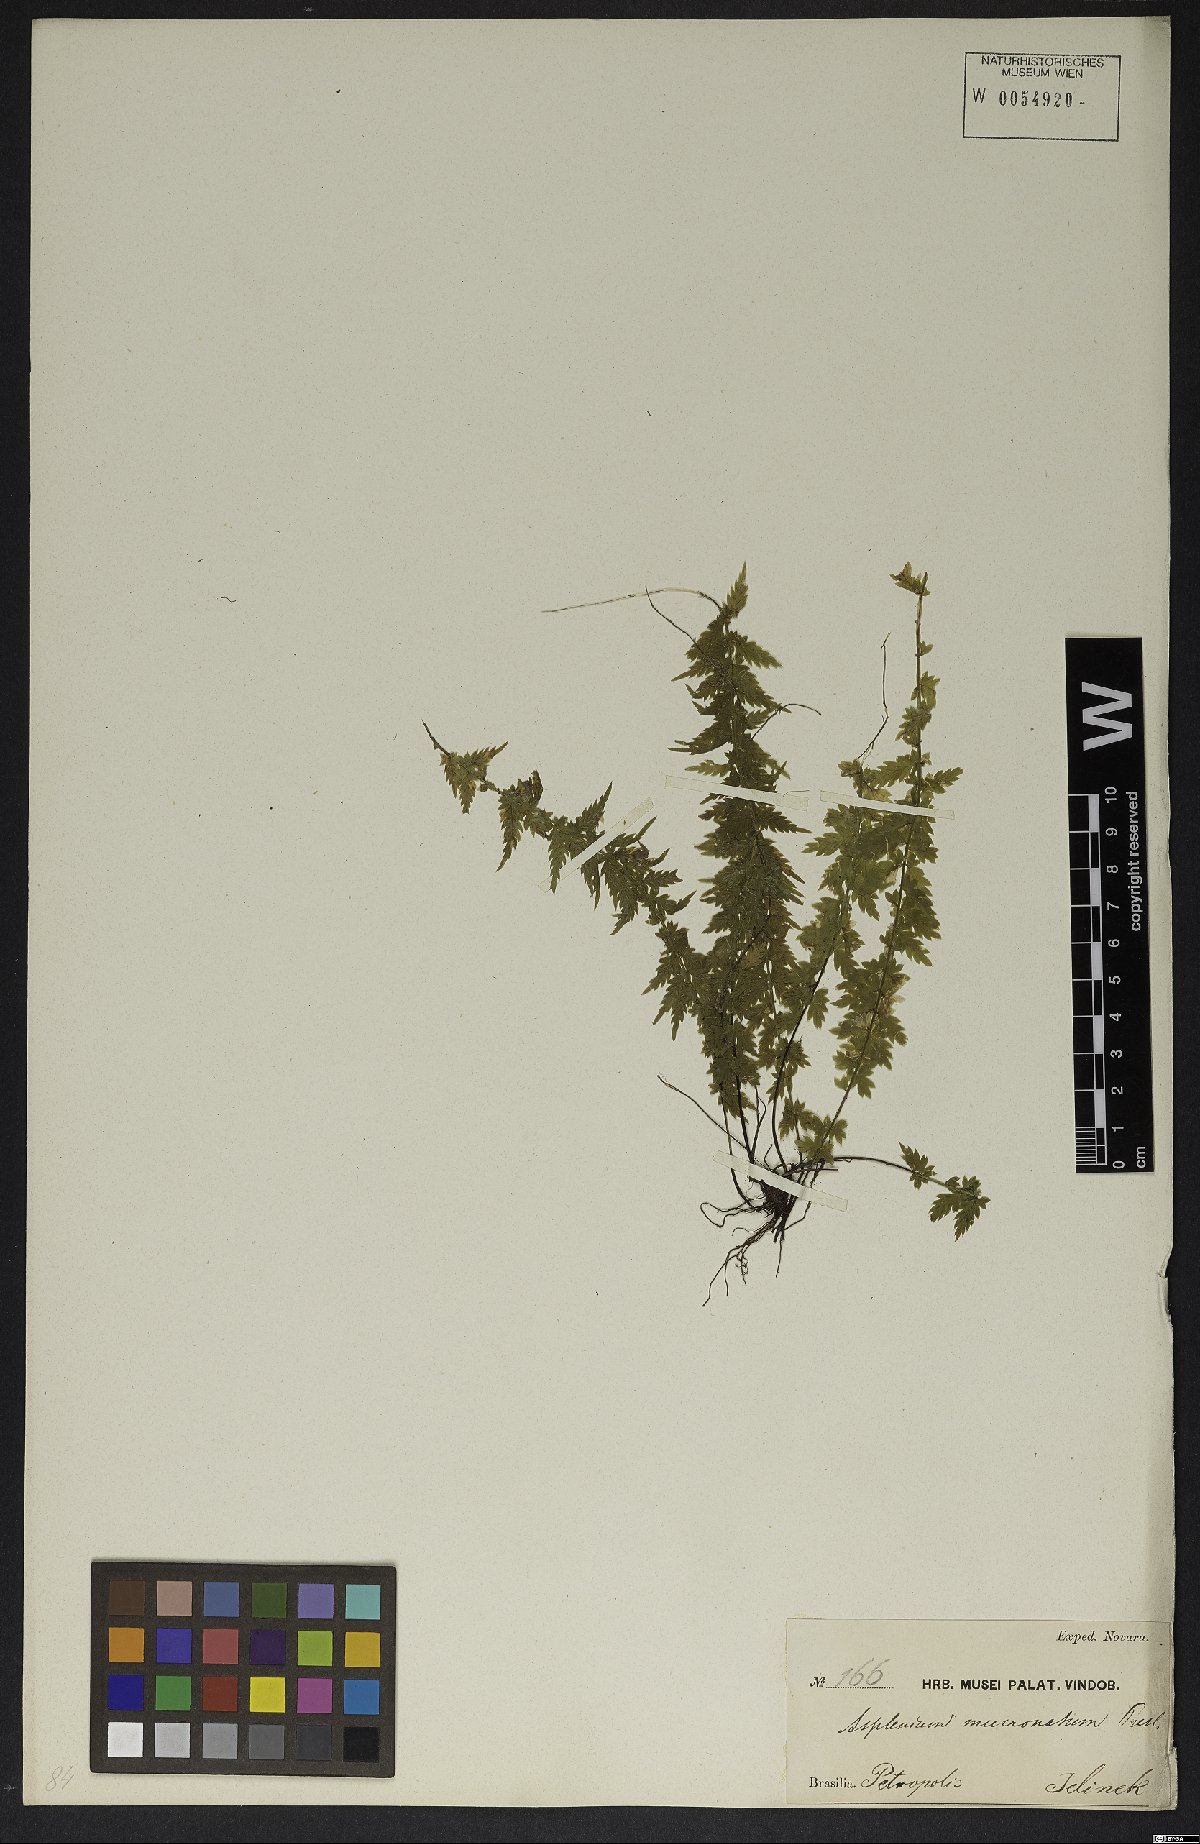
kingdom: Plantae
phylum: Tracheophyta
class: Polypodiopsida
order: Polypodiales
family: Aspleniaceae
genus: Asplenium
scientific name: Asplenium mucronatum
